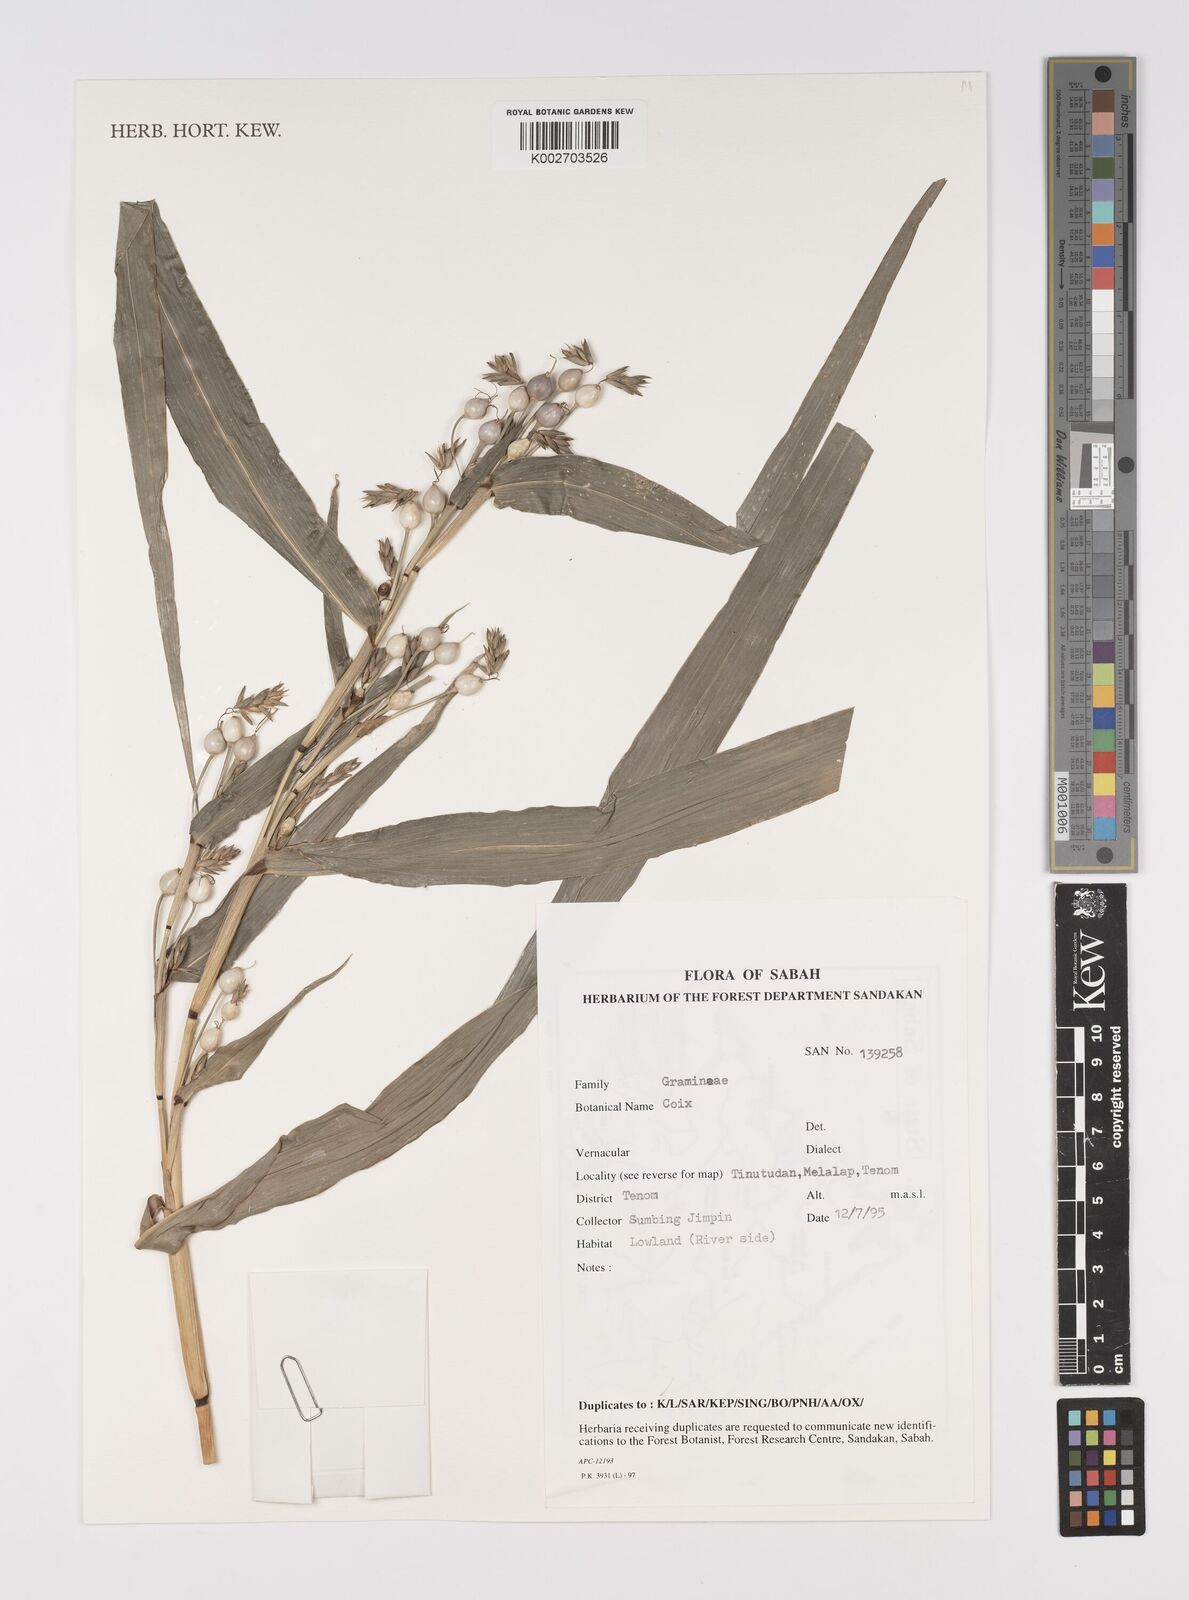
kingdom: Plantae
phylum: Tracheophyta
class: Liliopsida
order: Poales
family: Poaceae
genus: Coix
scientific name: Coix lacryma-jobi
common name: Job's tears
